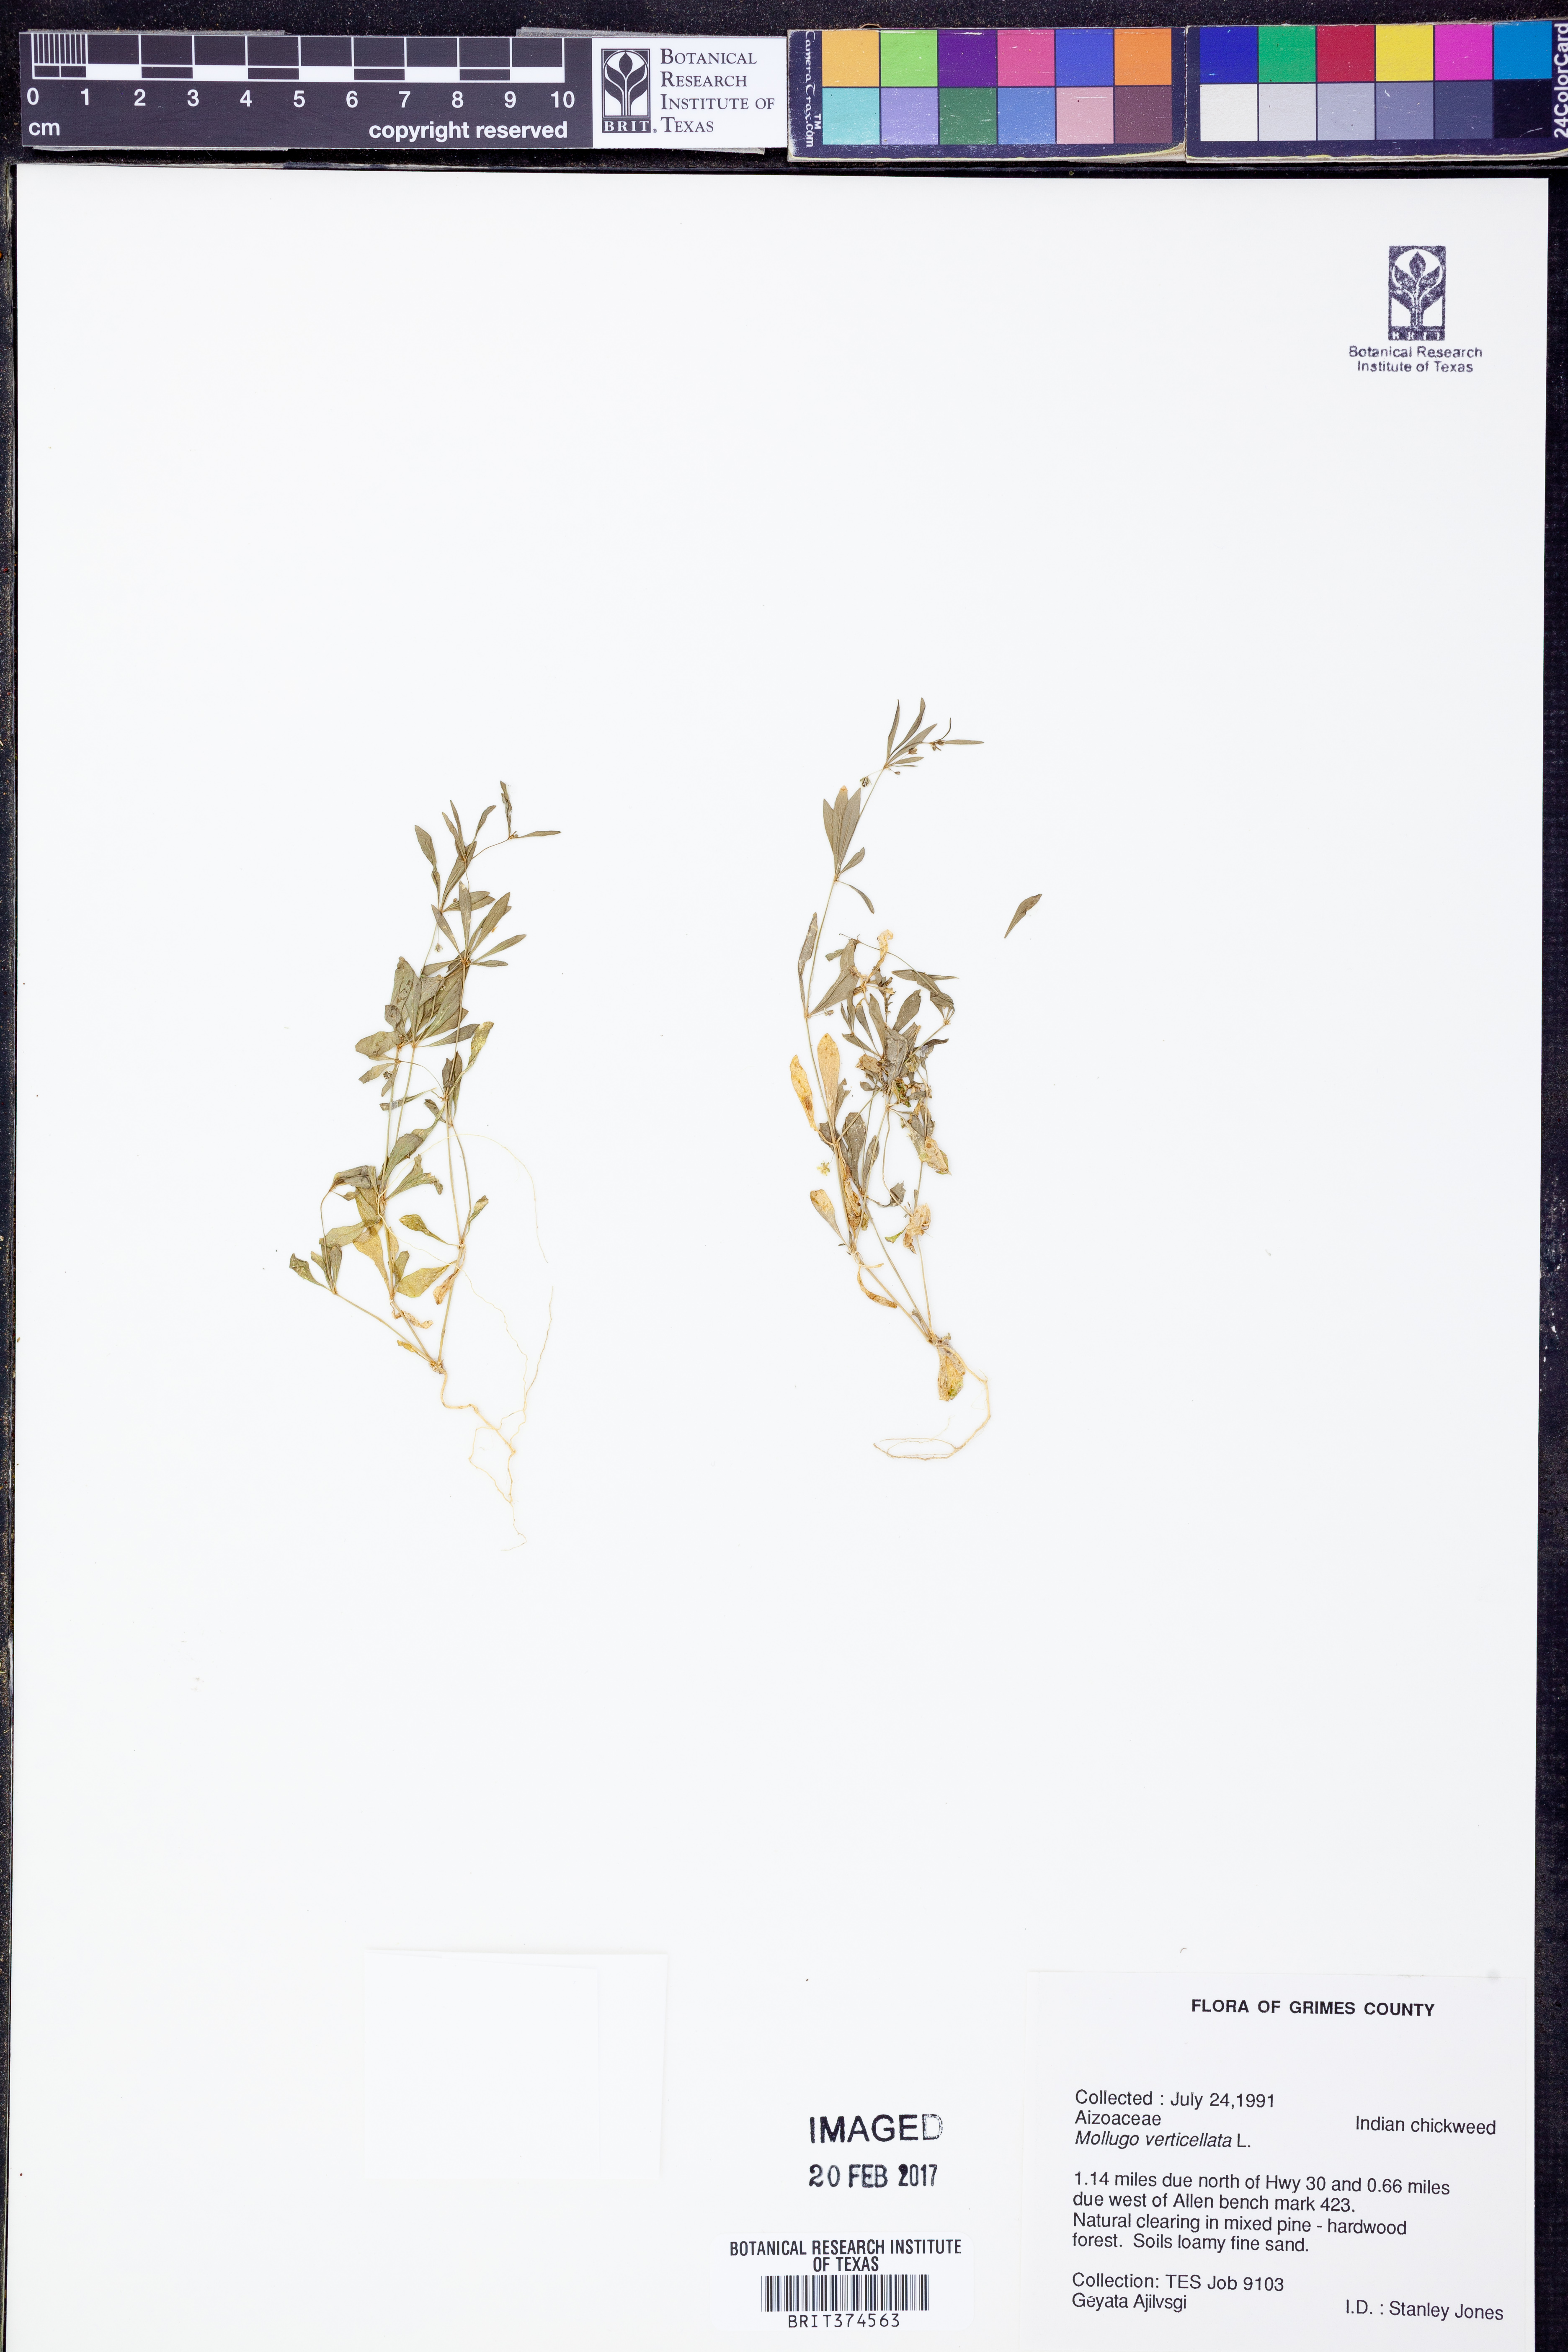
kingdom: Plantae
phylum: Tracheophyta
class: Magnoliopsida
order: Caryophyllales
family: Molluginaceae
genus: Mollugo
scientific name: Mollugo verticillata
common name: Green carpetweed
